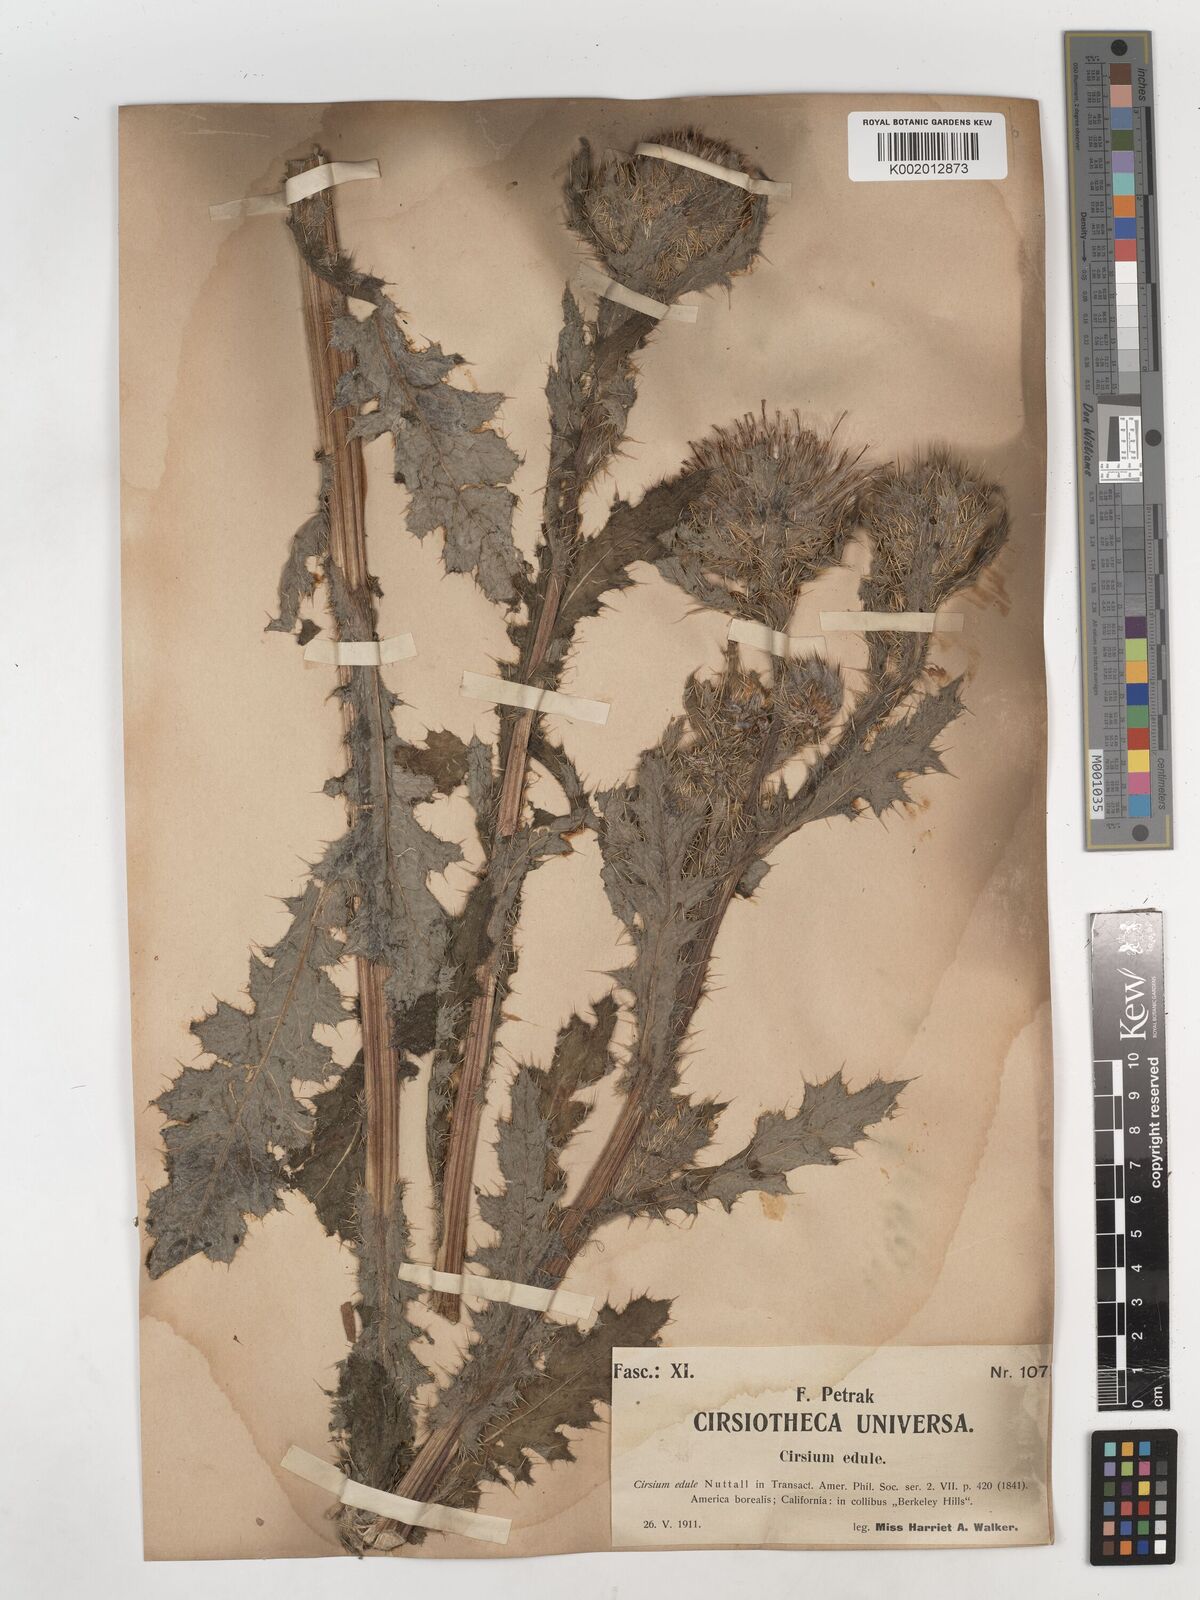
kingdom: Plantae
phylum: Tracheophyta
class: Magnoliopsida
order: Asterales
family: Asteraceae
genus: Cirsium
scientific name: Cirsium edule
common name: Indian thistle
